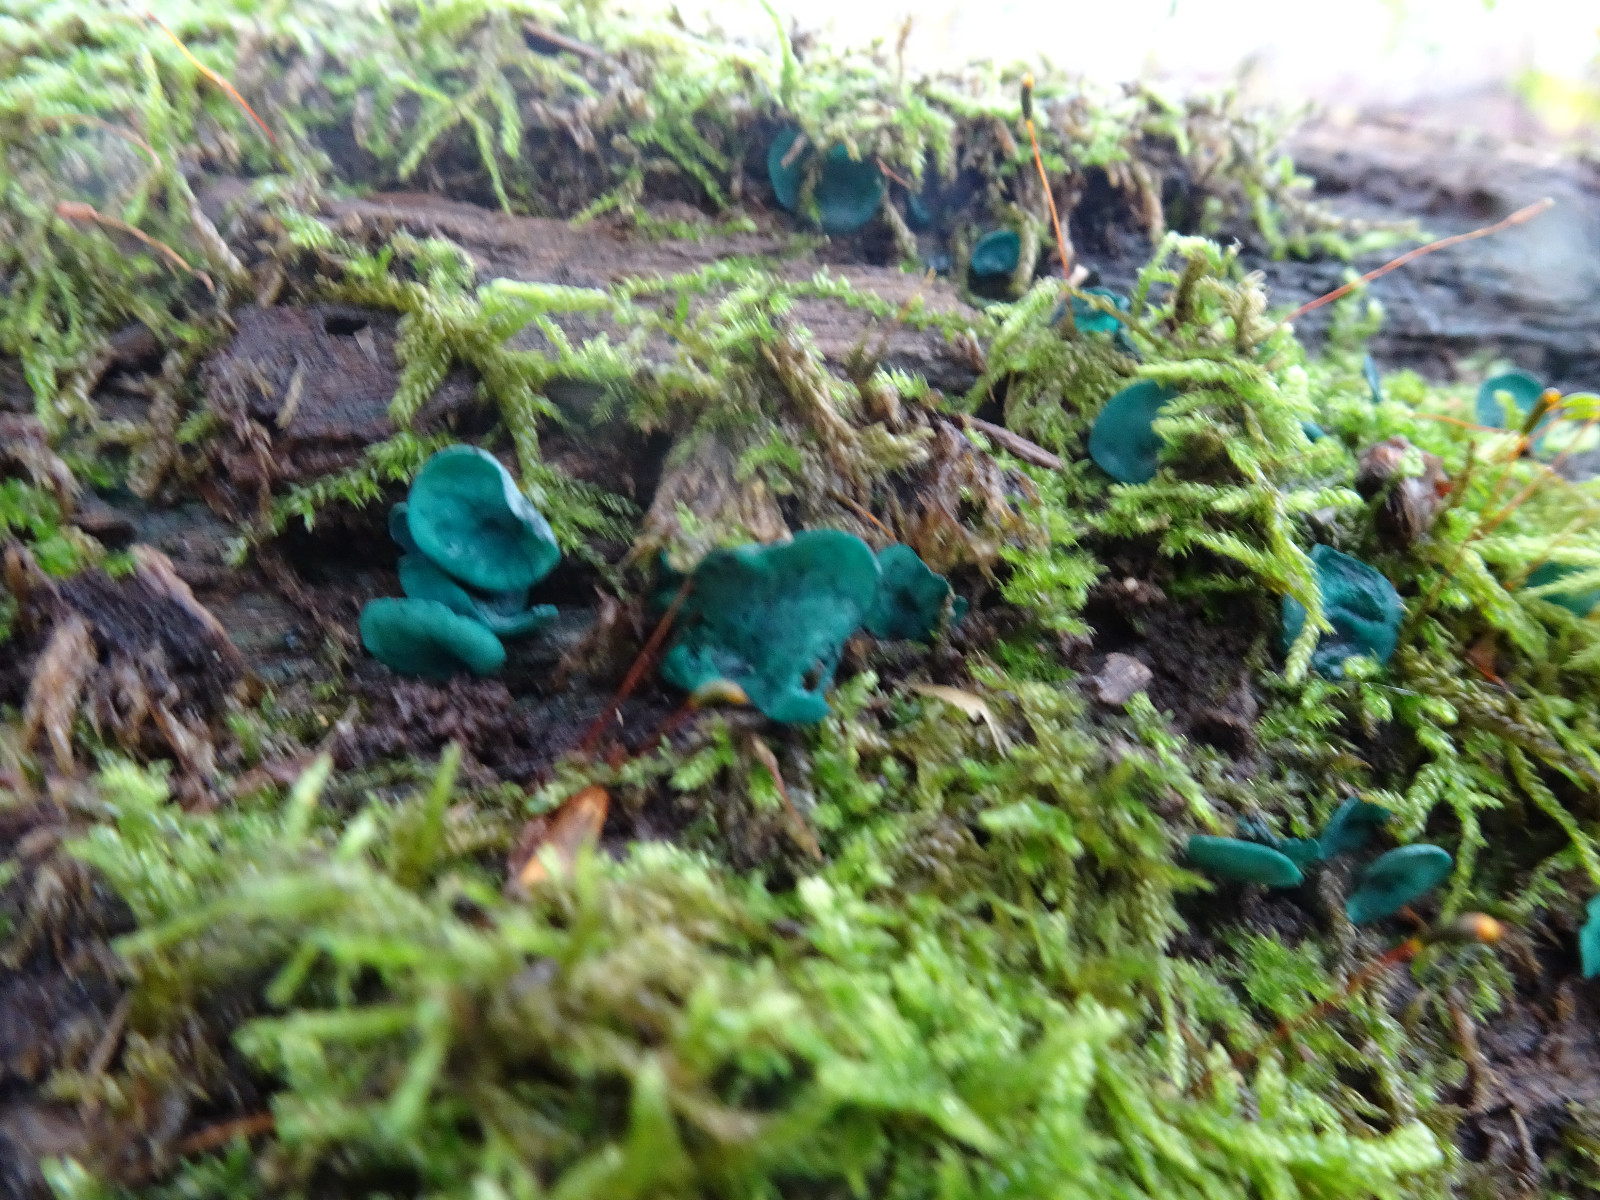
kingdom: Fungi
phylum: Ascomycota
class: Leotiomycetes
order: Helotiales
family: Chlorociboriaceae
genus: Chlorociboria
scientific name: Chlorociboria aeruginascens
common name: almindelig grønskive
